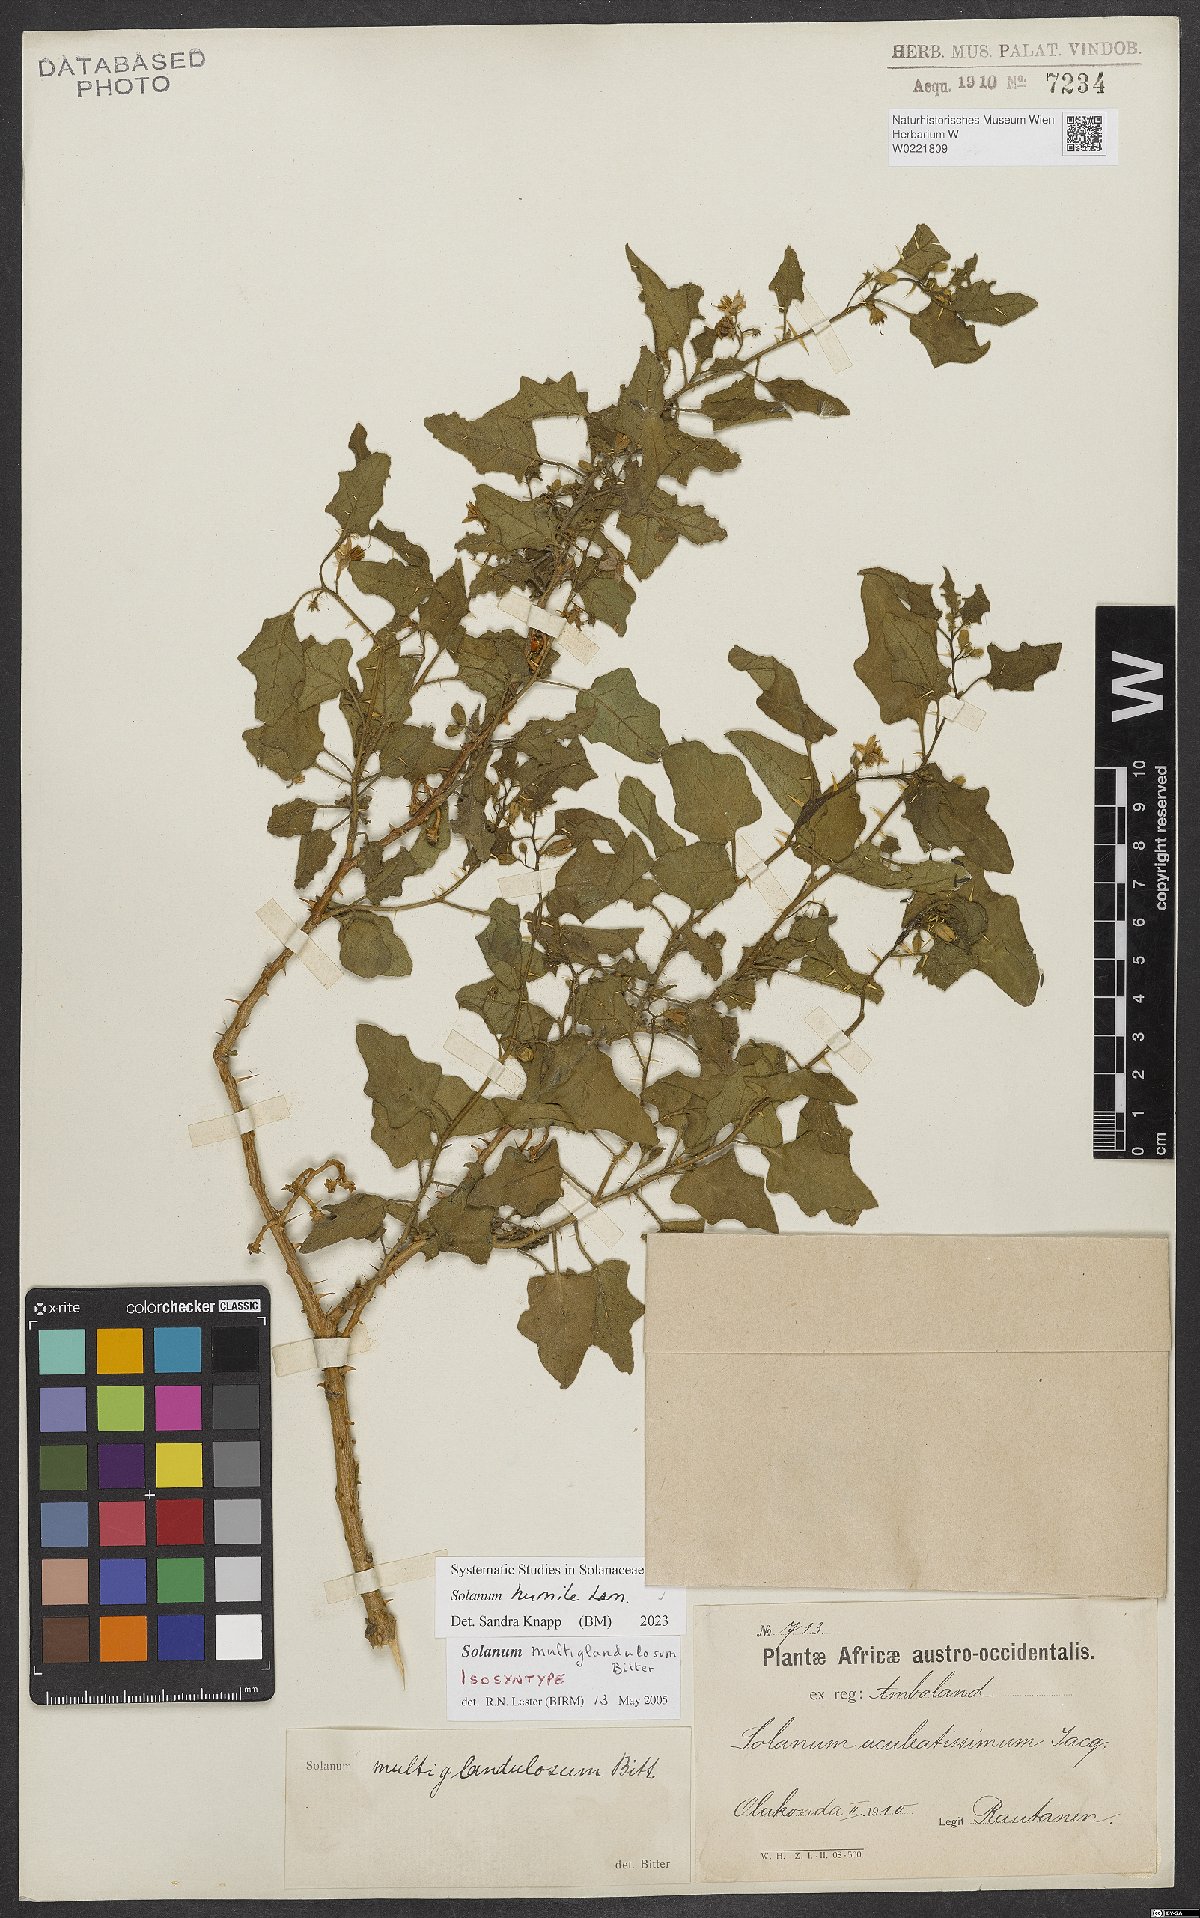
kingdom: Plantae
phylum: Tracheophyta
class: Magnoliopsida
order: Solanales
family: Solanaceae
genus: Solanum
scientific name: Solanum humile
